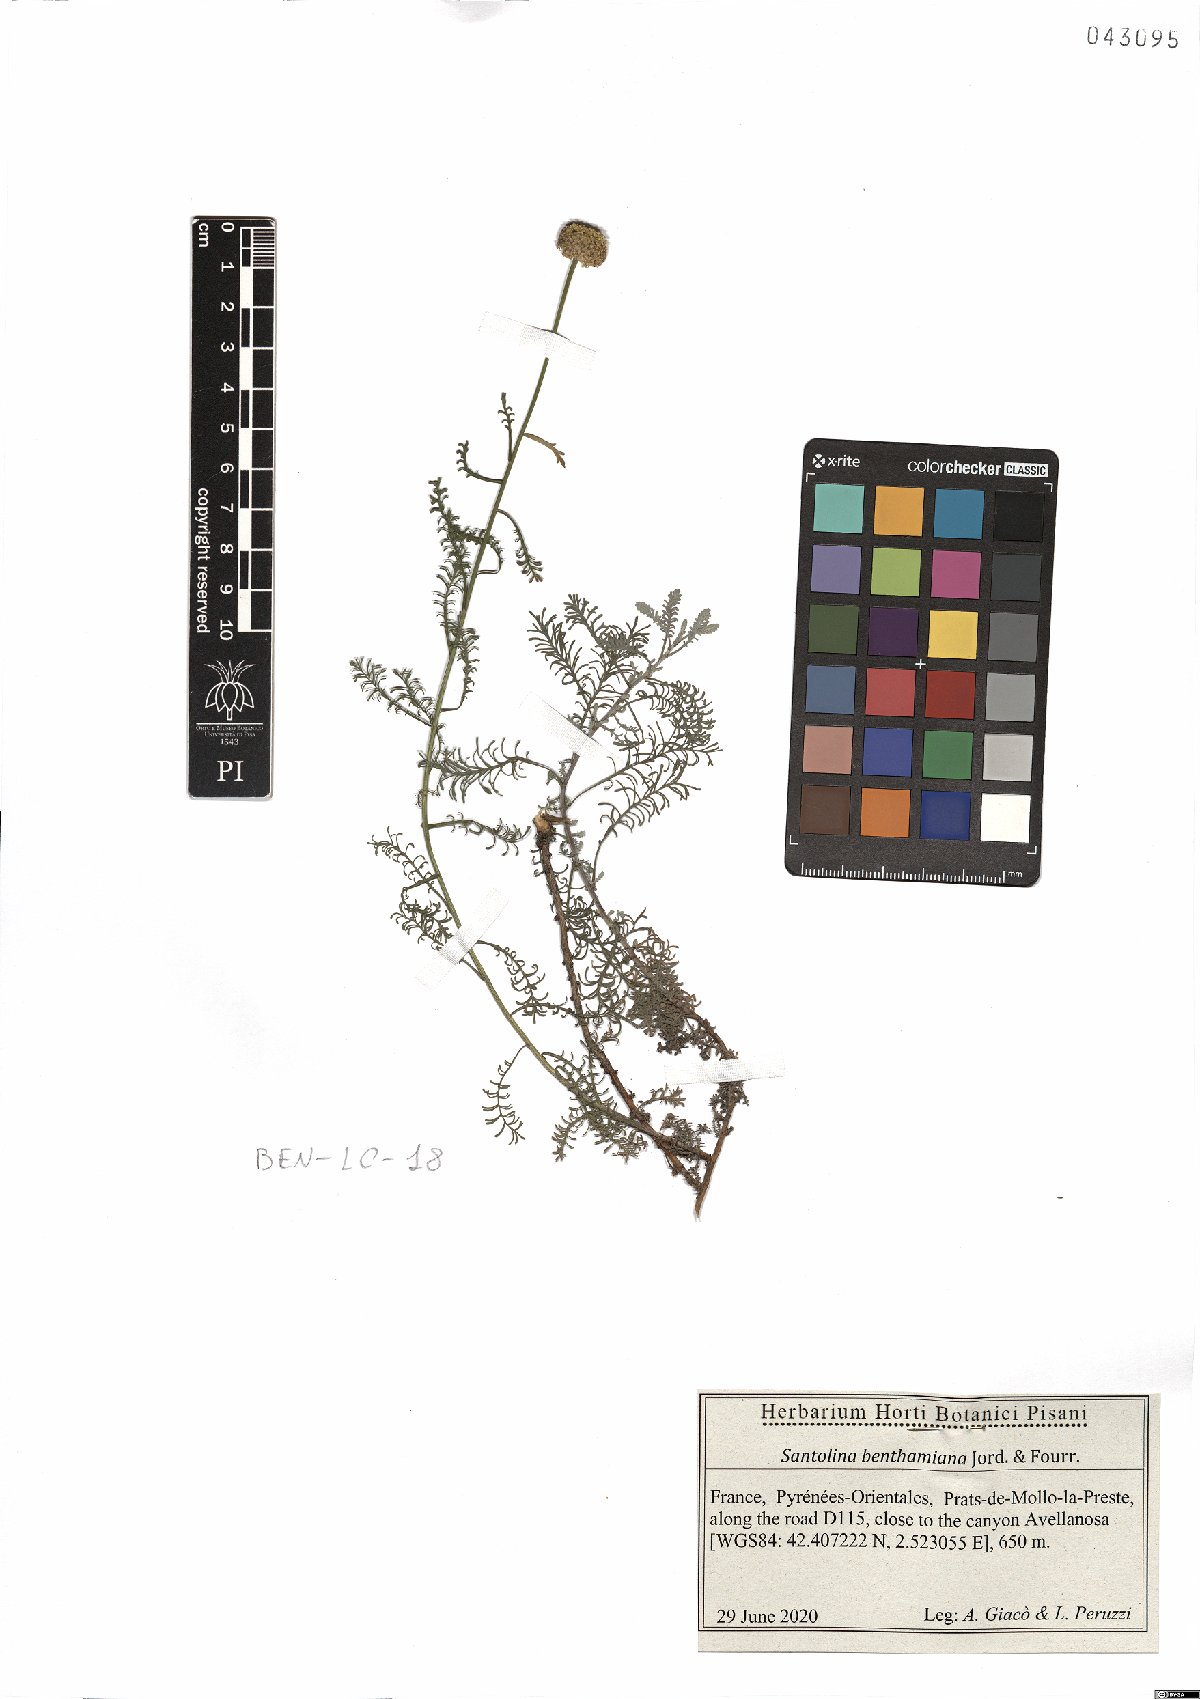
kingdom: Plantae
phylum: Tracheophyta
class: Magnoliopsida
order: Asterales
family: Asteraceae
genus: Santolina
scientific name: Santolina benthamiana
